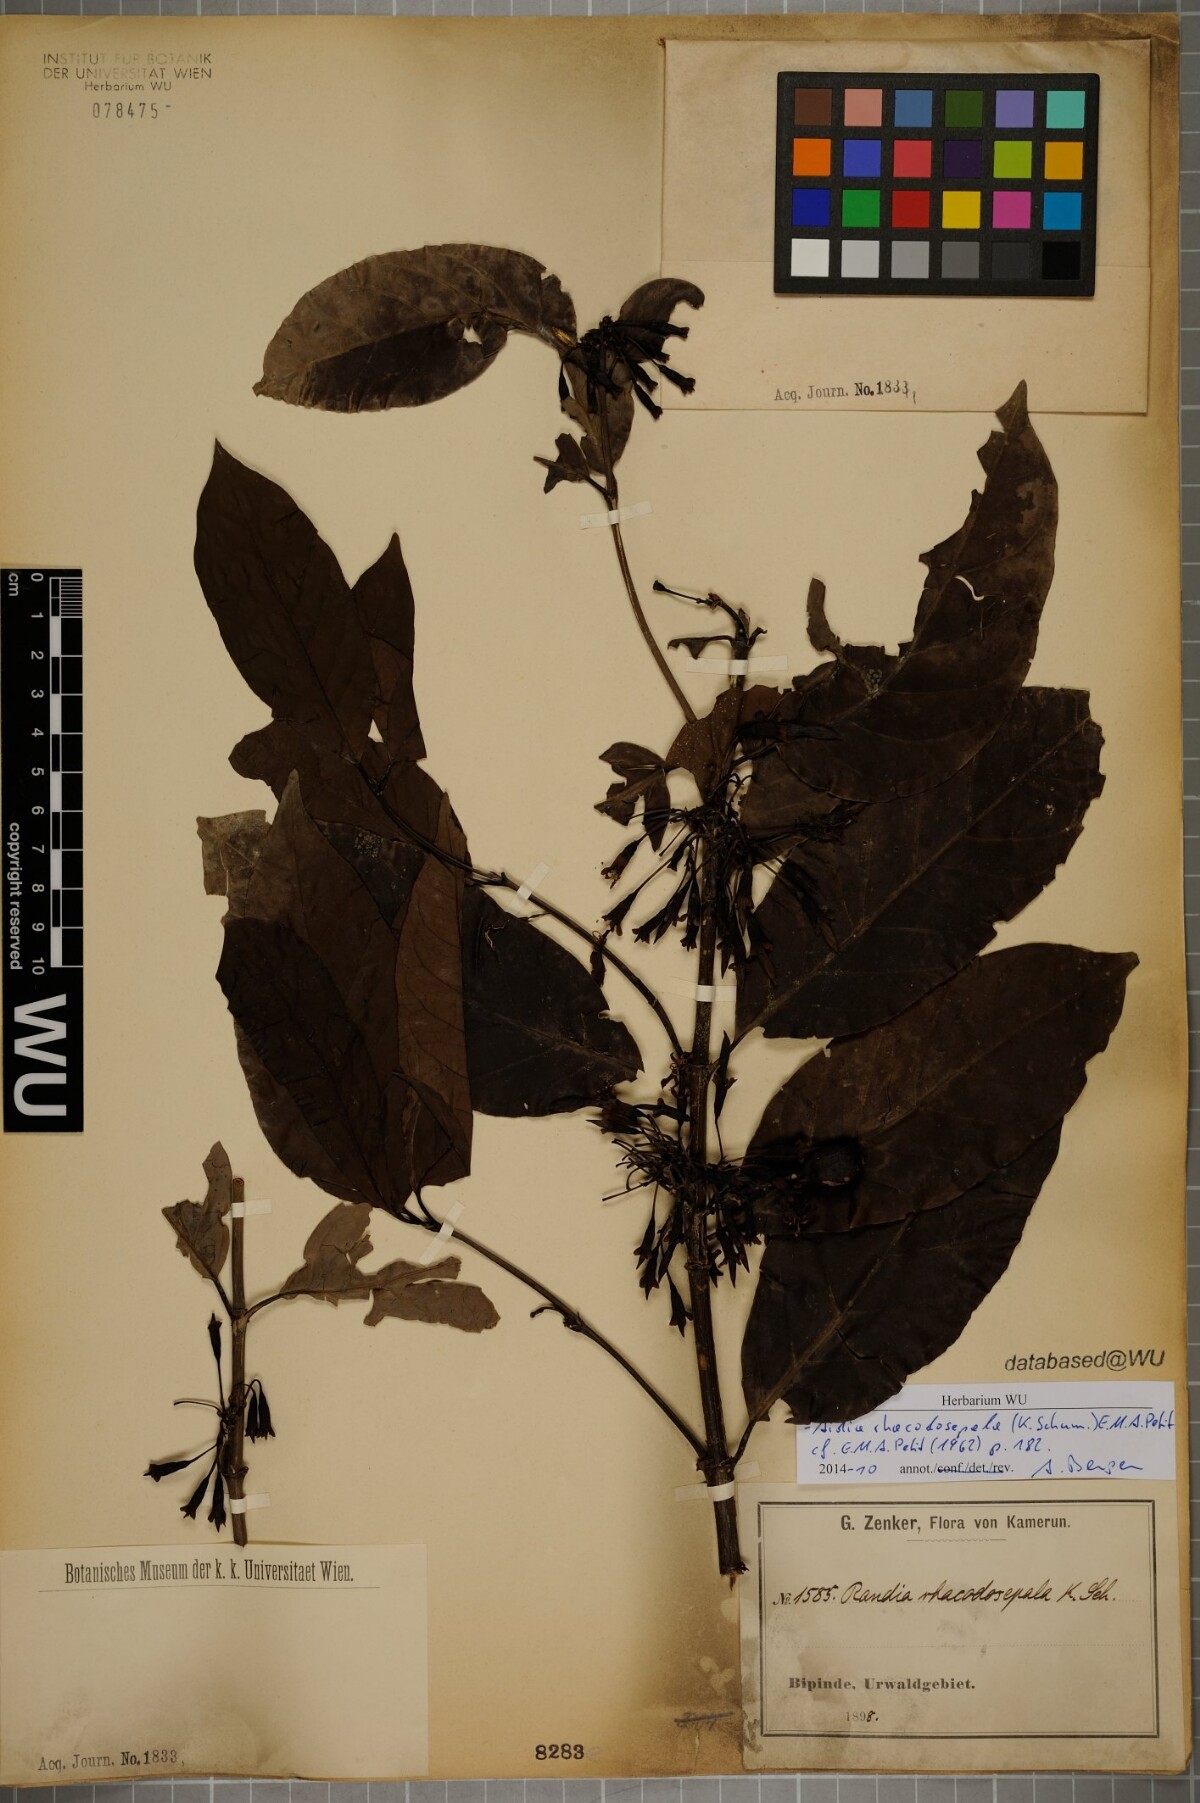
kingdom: Plantae
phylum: Tracheophyta
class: Magnoliopsida
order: Gentianales
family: Rubiaceae
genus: Aidia
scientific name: Aidia rhacodosepala
